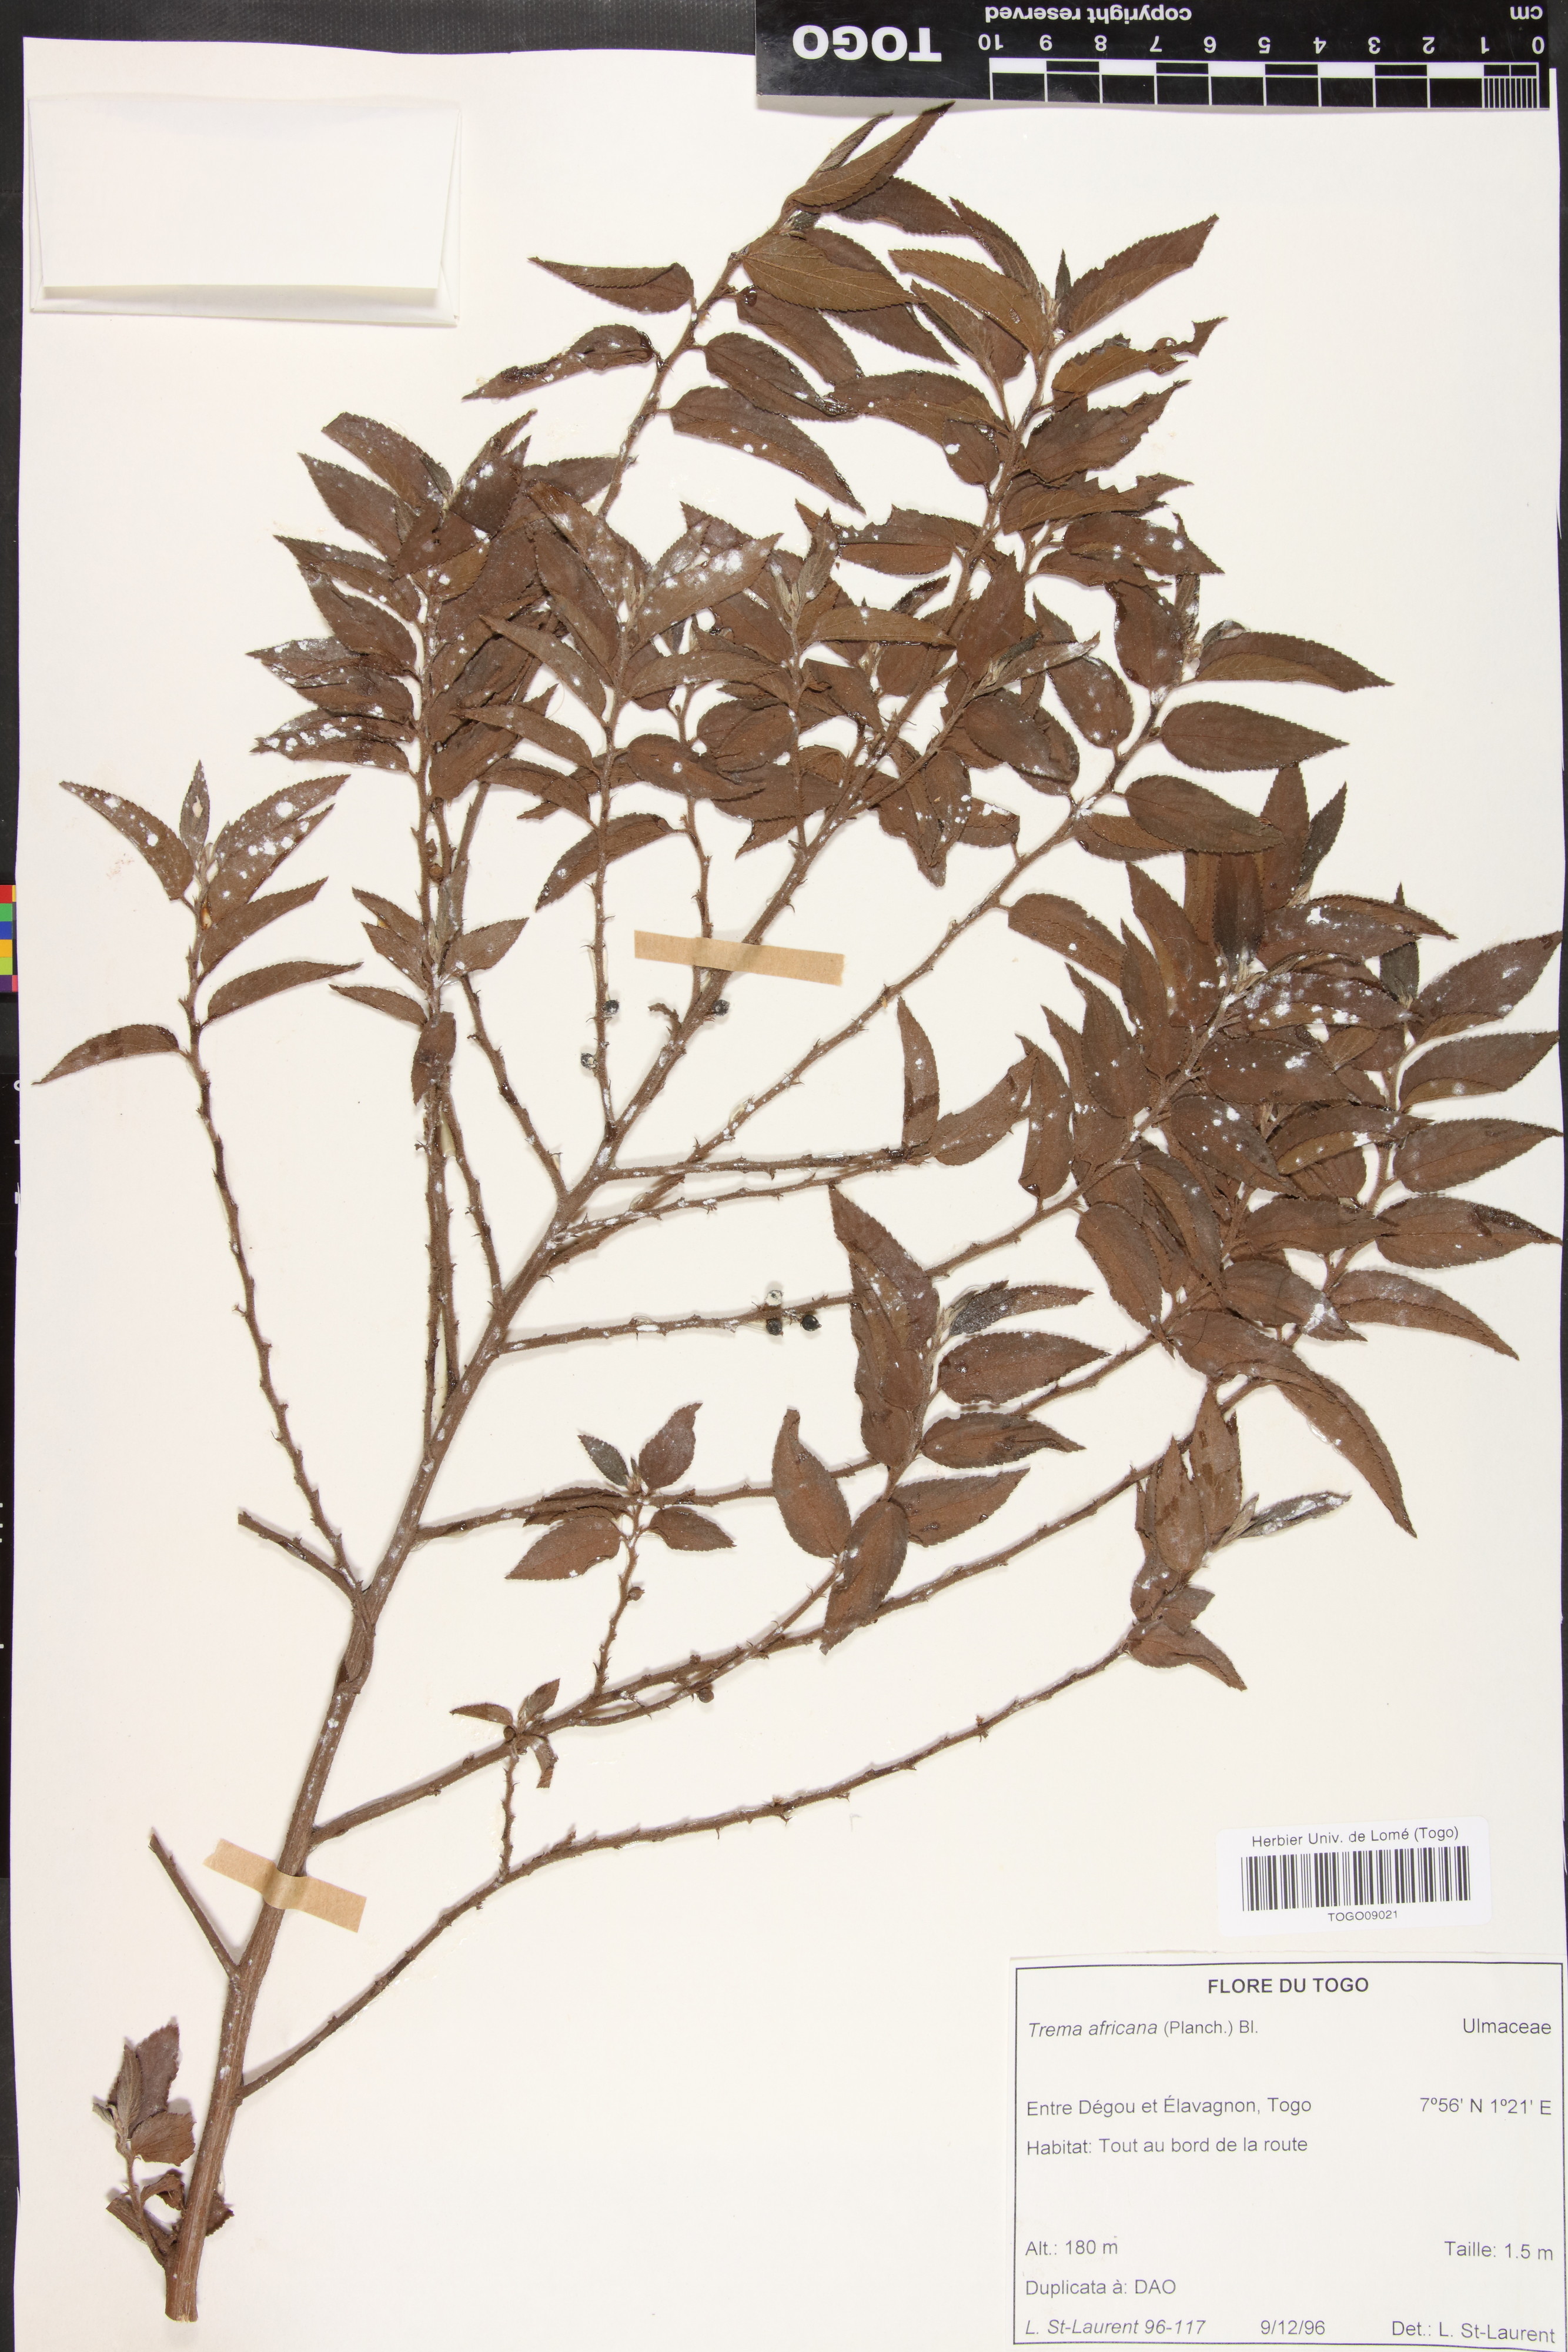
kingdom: Plantae
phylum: Tracheophyta
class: Magnoliopsida
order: Rosales
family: Cannabaceae
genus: Trema
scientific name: Trema orientale
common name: Indian charcoal tree
